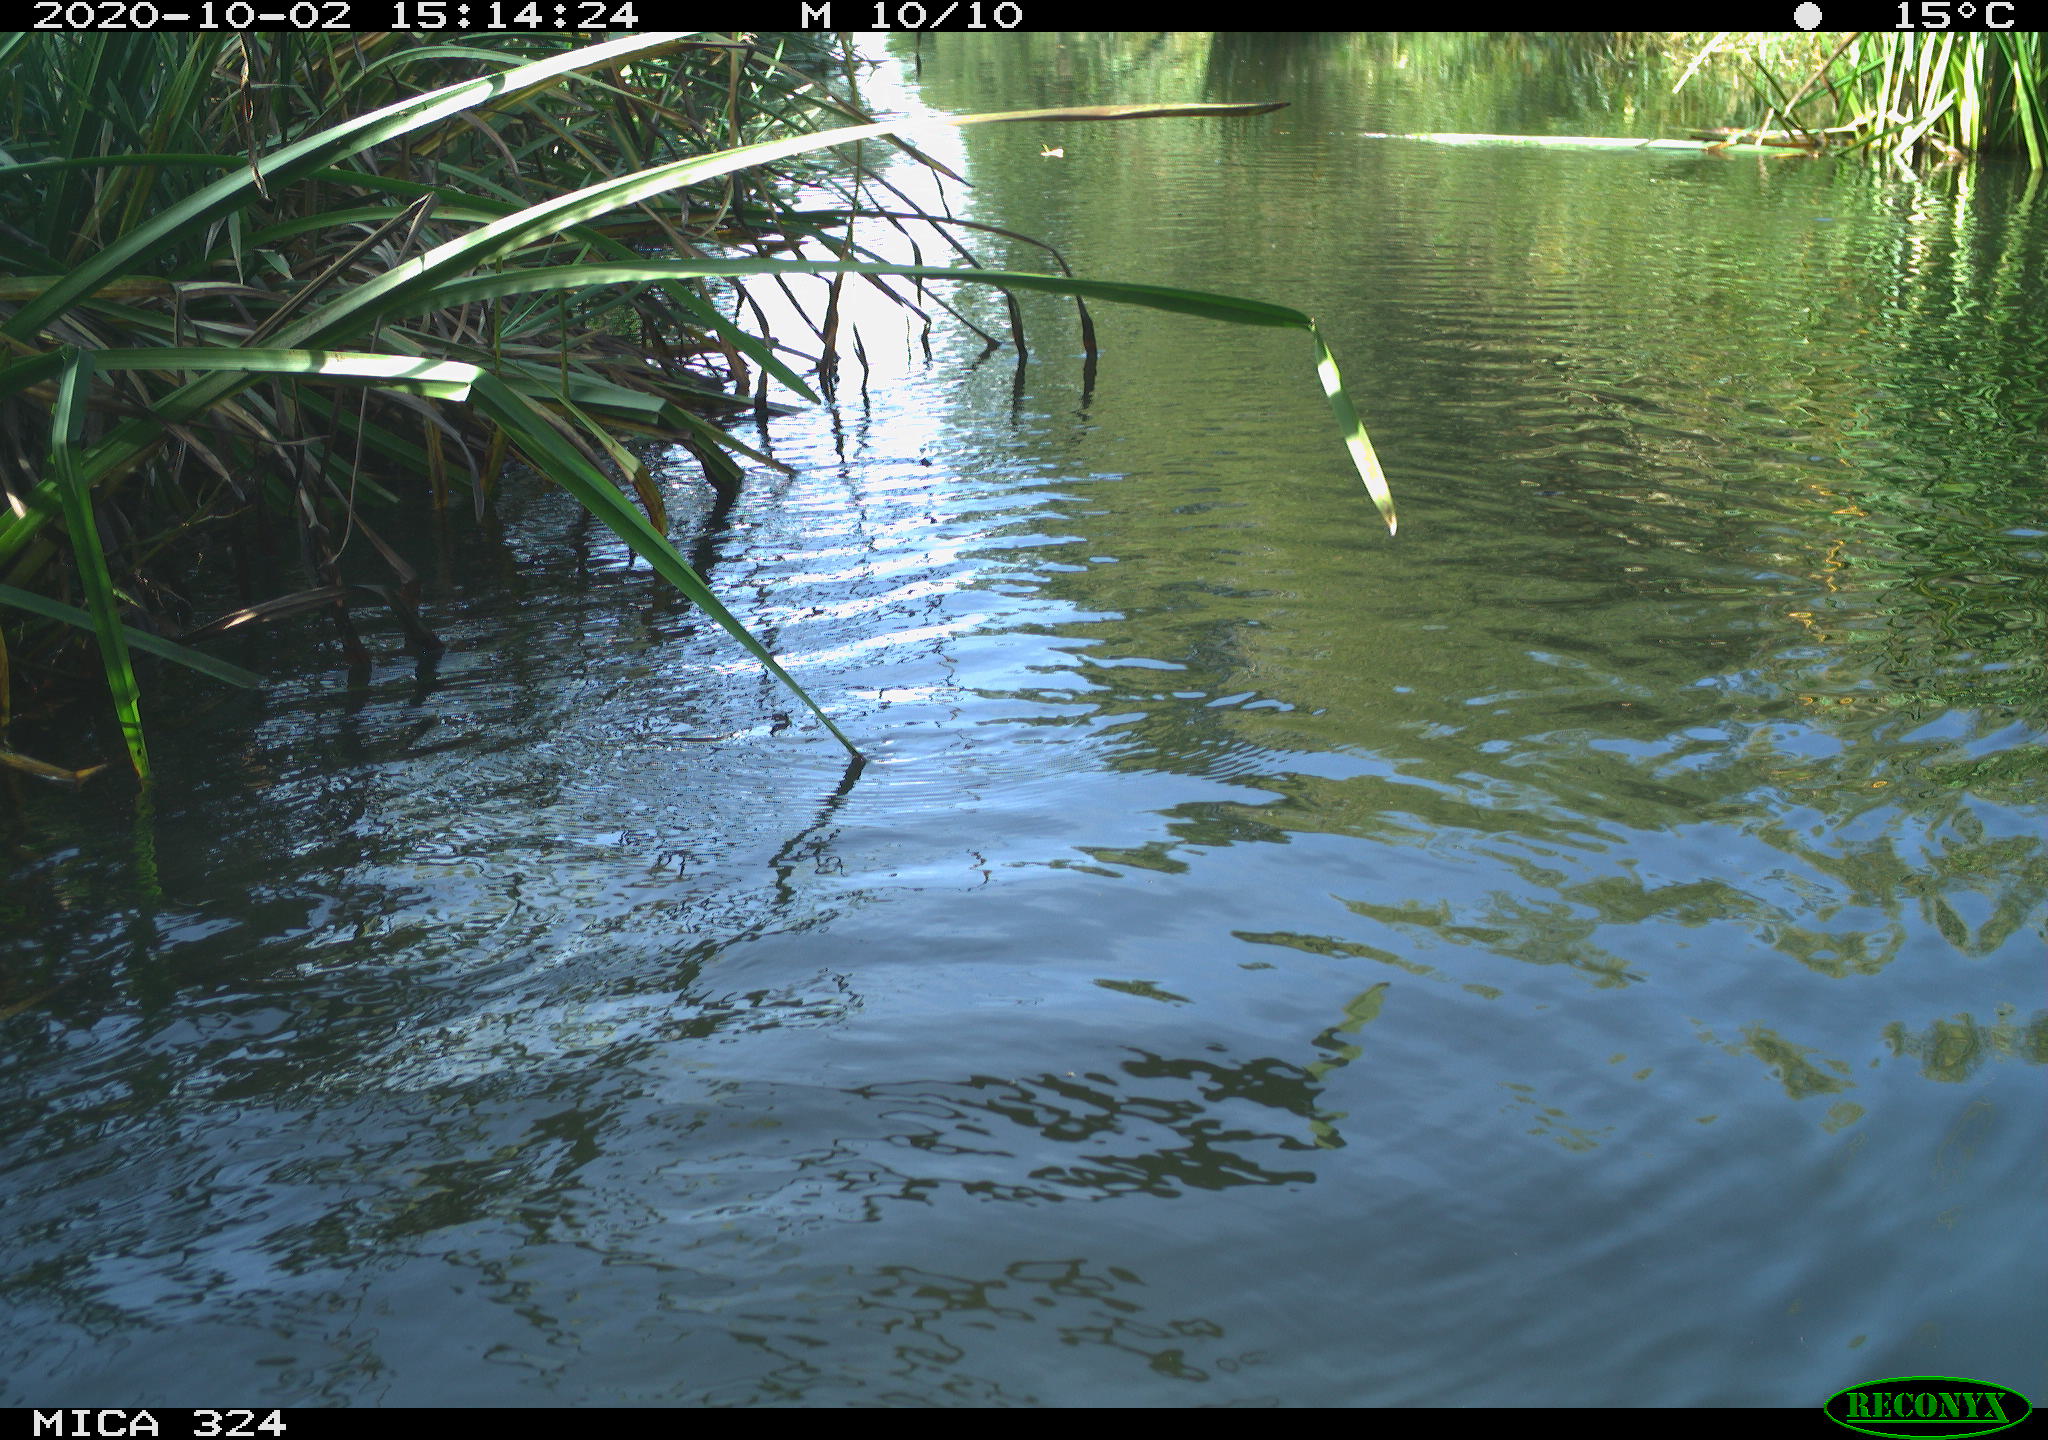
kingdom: Animalia
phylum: Chordata
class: Mammalia
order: Rodentia
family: Cricetidae
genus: Ondatra
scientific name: Ondatra zibethicus
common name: Muskrat
